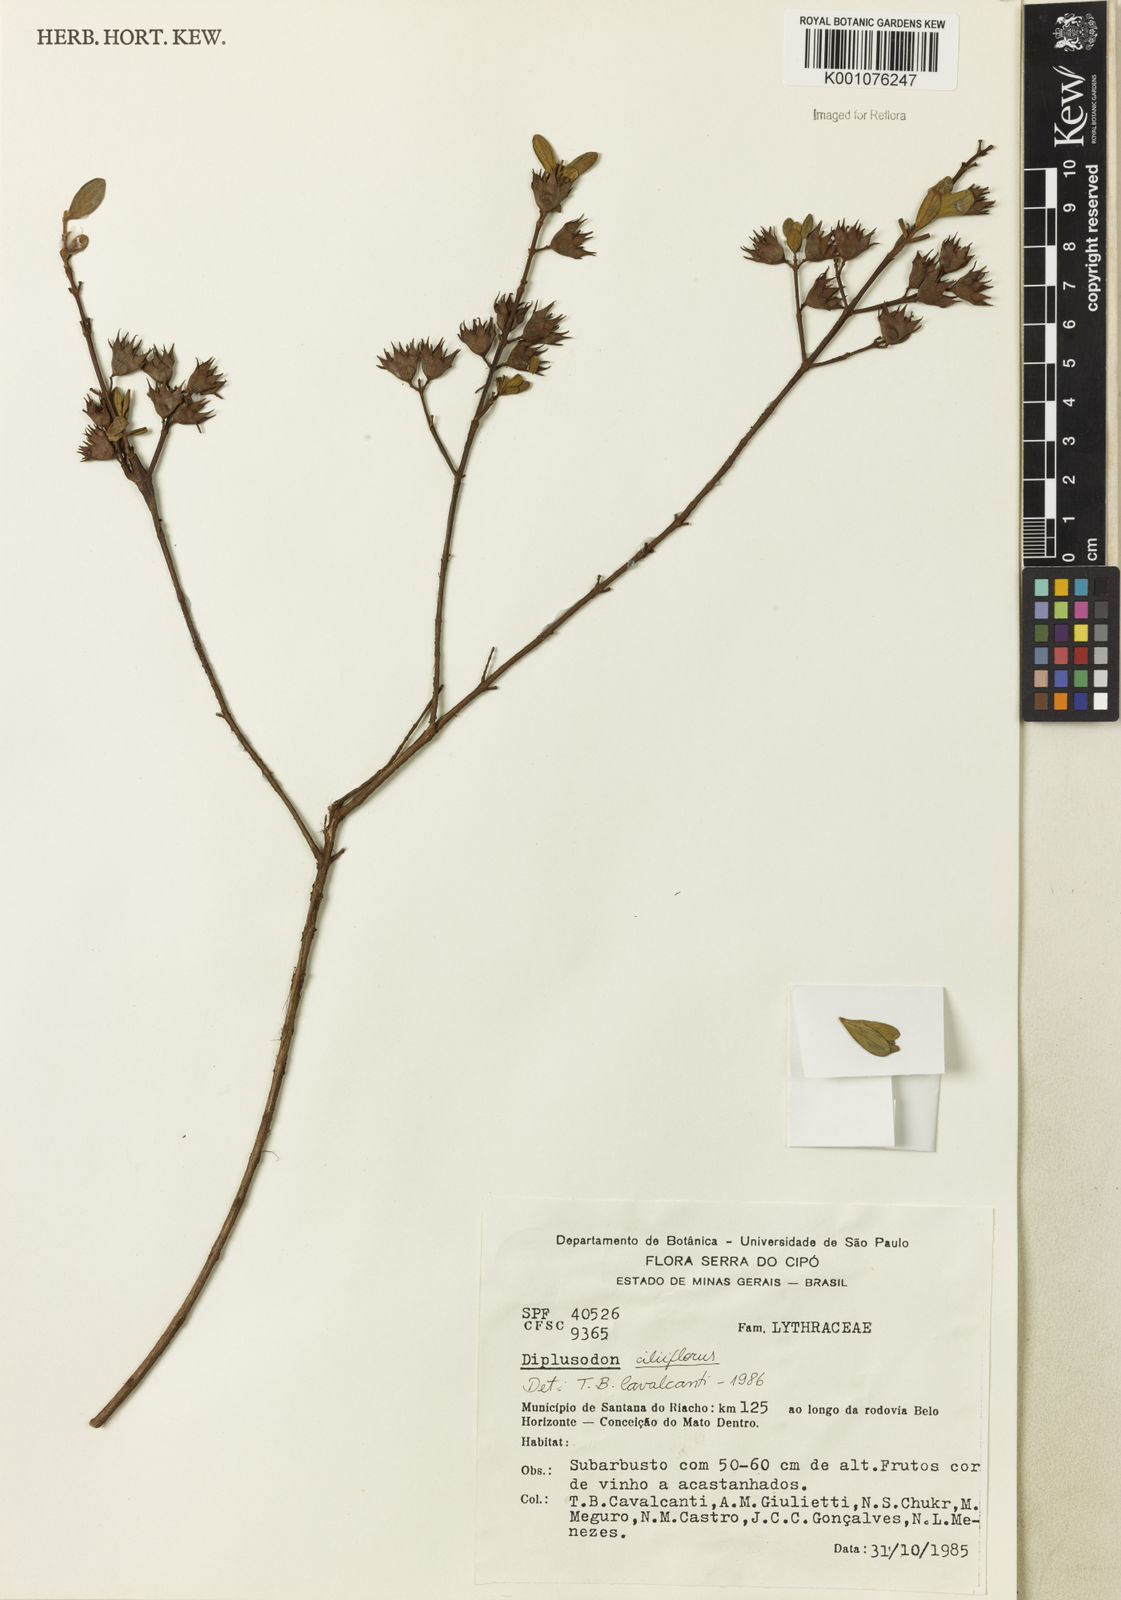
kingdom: Plantae
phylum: Tracheophyta
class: Magnoliopsida
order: Myrtales
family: Lythraceae
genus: Diplusodon
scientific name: Diplusodon ciliiflorus
